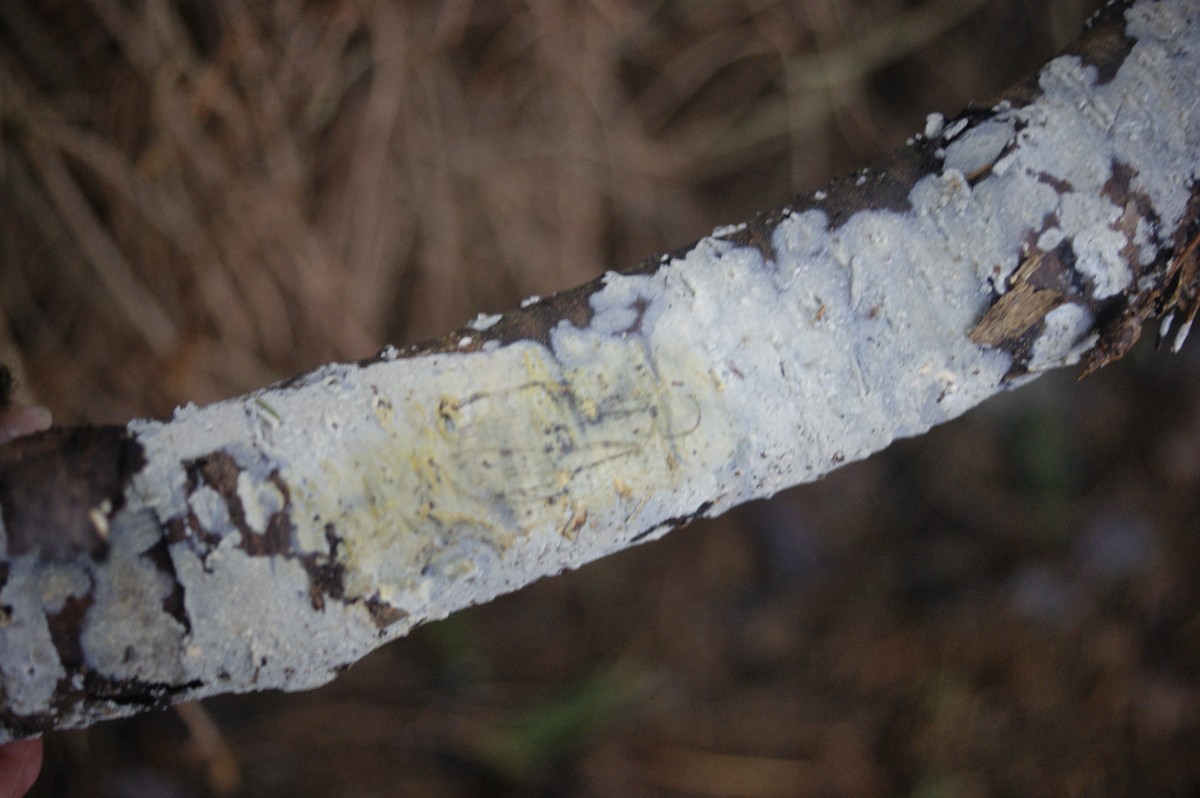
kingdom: Fungi
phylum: Basidiomycota
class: Agaricomycetes
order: Agaricales
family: Radulomycetaceae
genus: Radulomyces
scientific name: Radulomyces confluens
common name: glat naftalinskind
